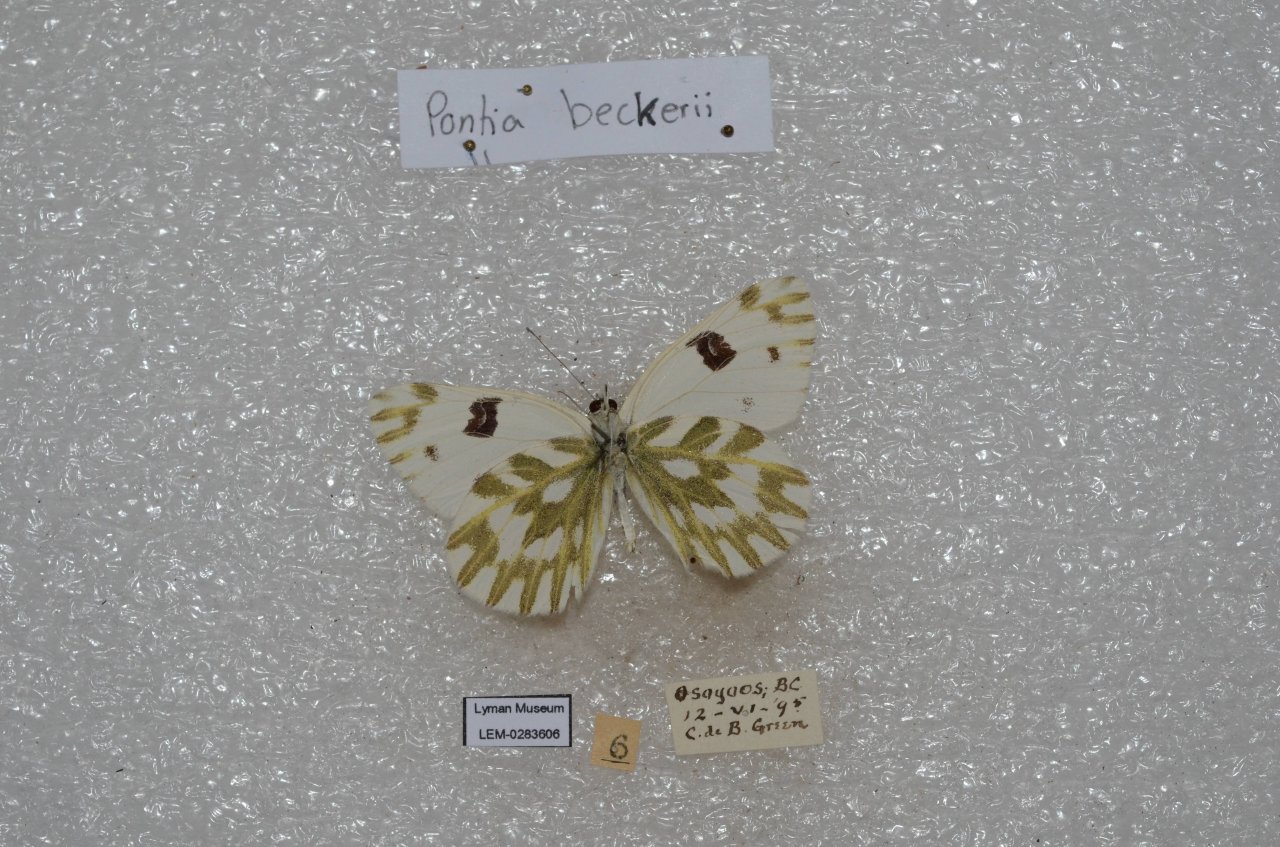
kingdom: Animalia
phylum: Arthropoda
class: Insecta
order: Lepidoptera
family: Pieridae
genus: Pontia
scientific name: Pontia beckerii
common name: Becker's White
